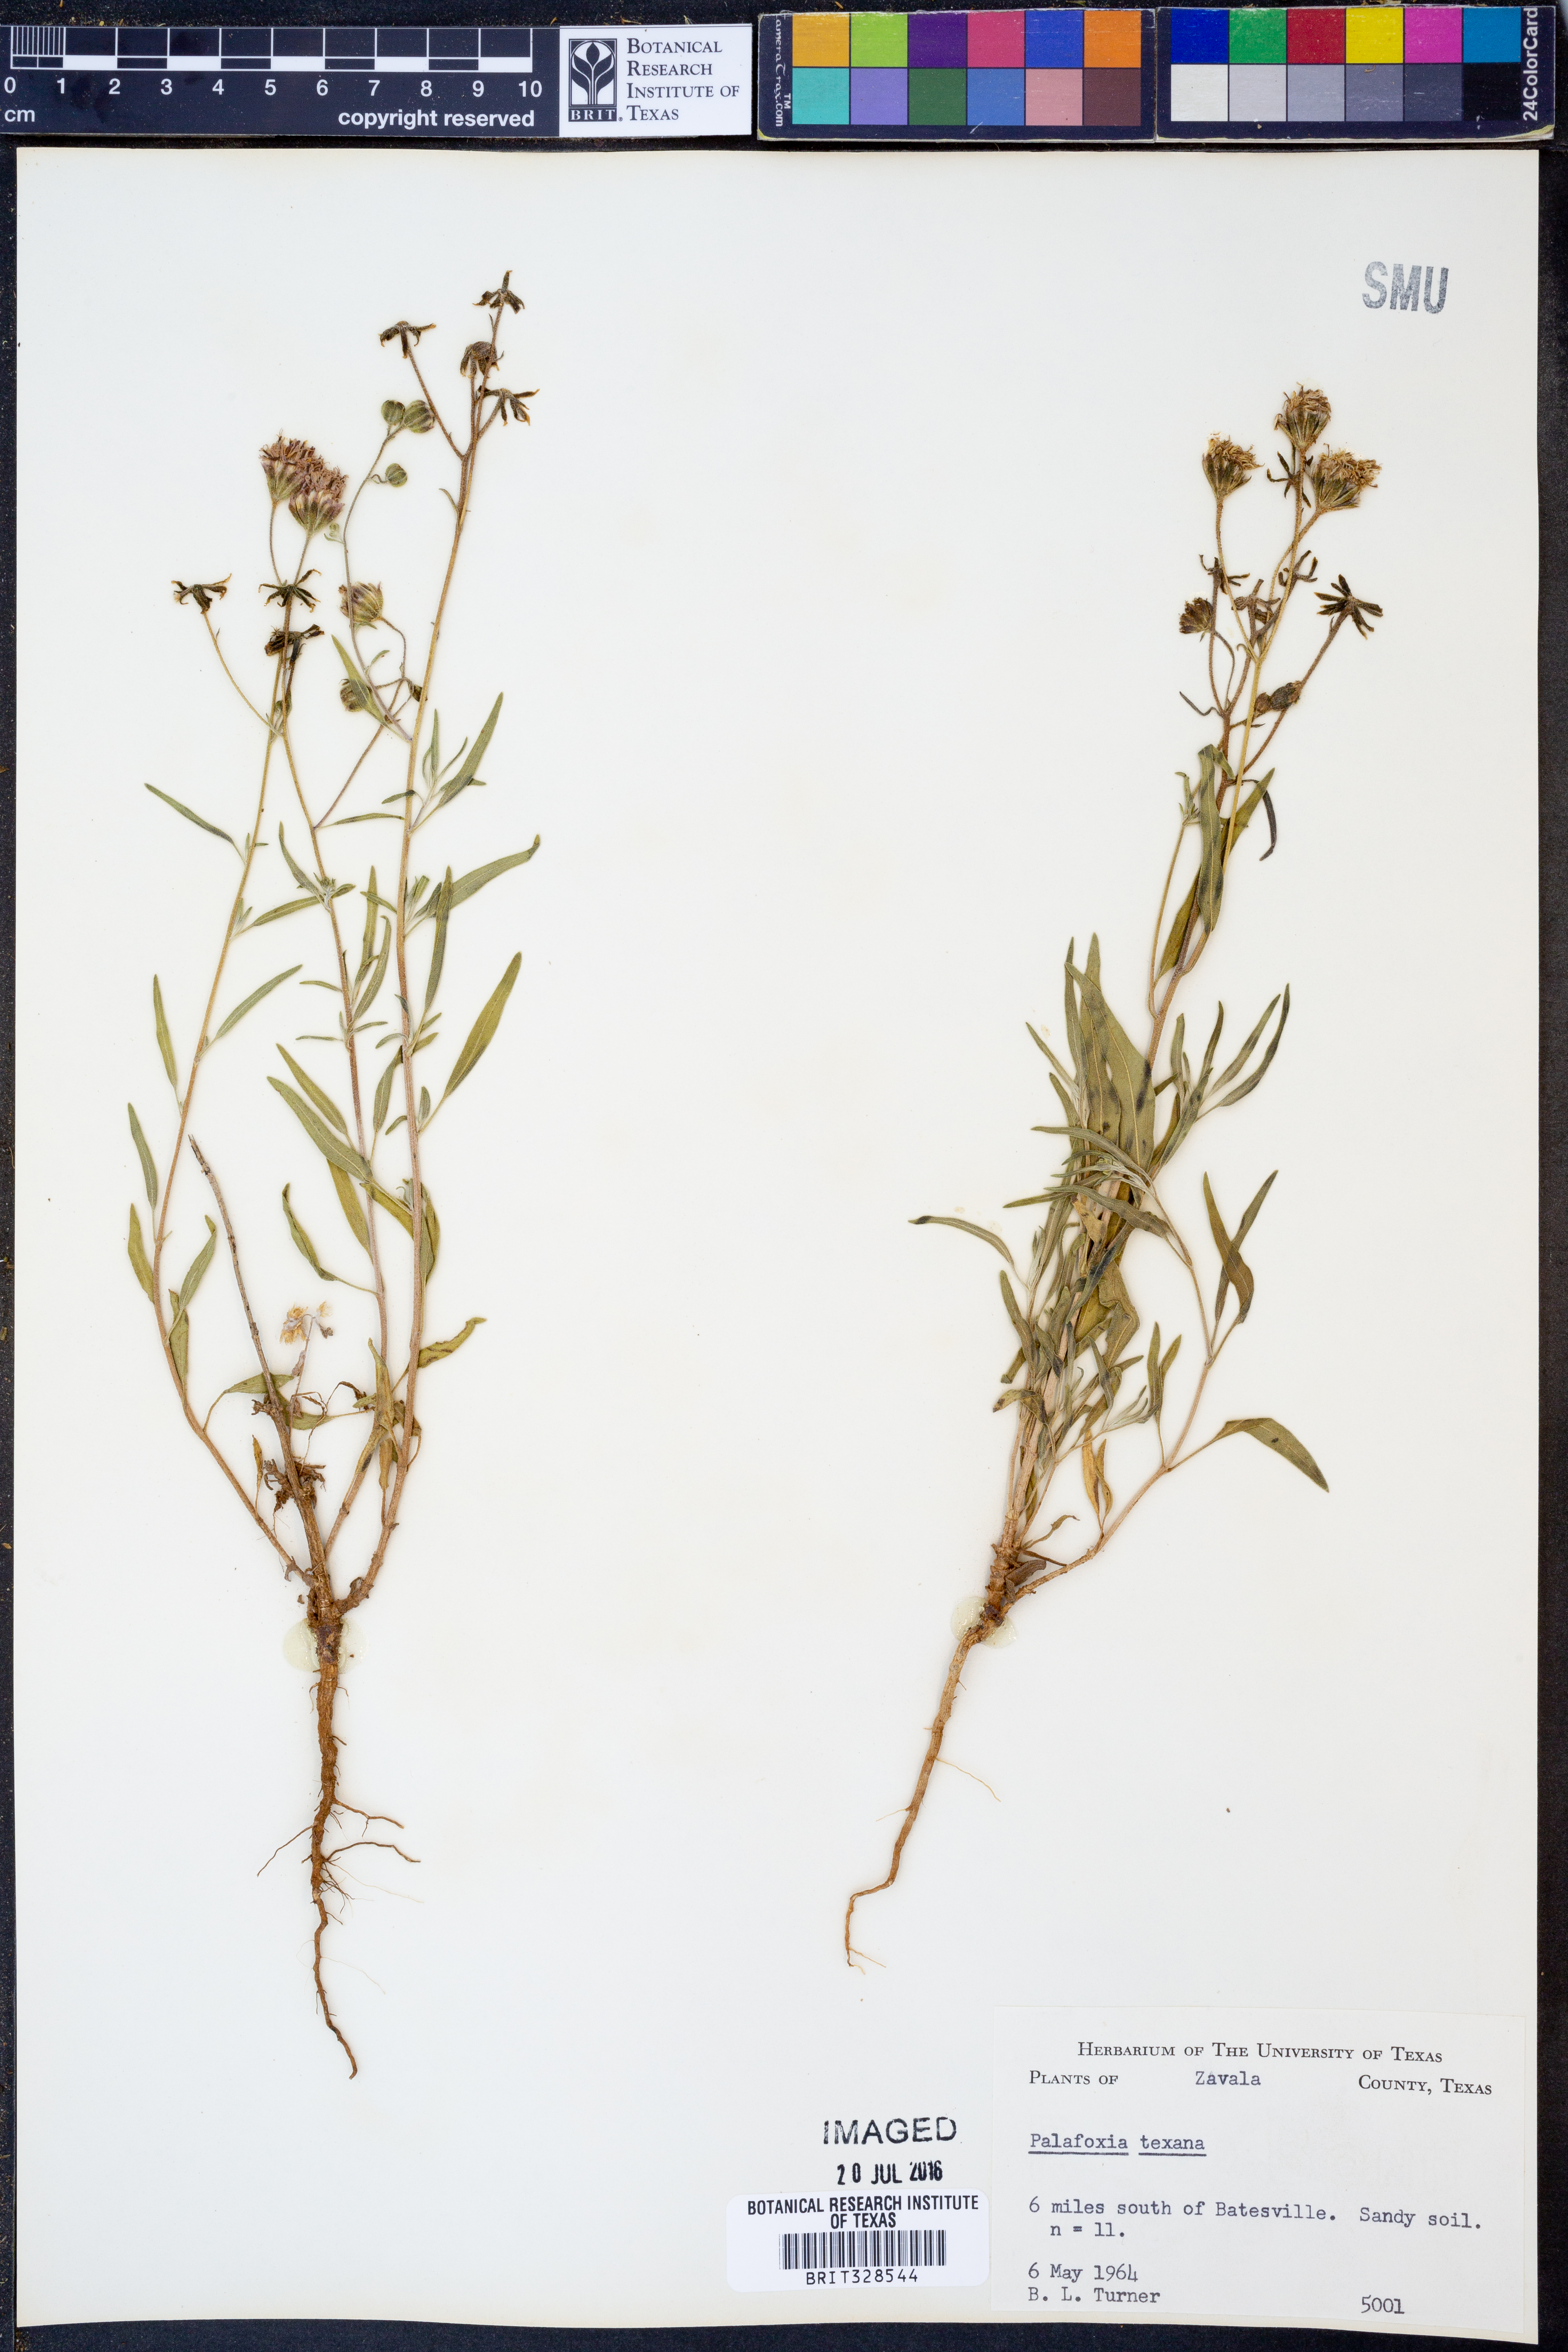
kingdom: Plantae
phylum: Tracheophyta
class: Magnoliopsida
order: Asterales
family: Asteraceae
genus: Palafoxia
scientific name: Palafoxia texana
